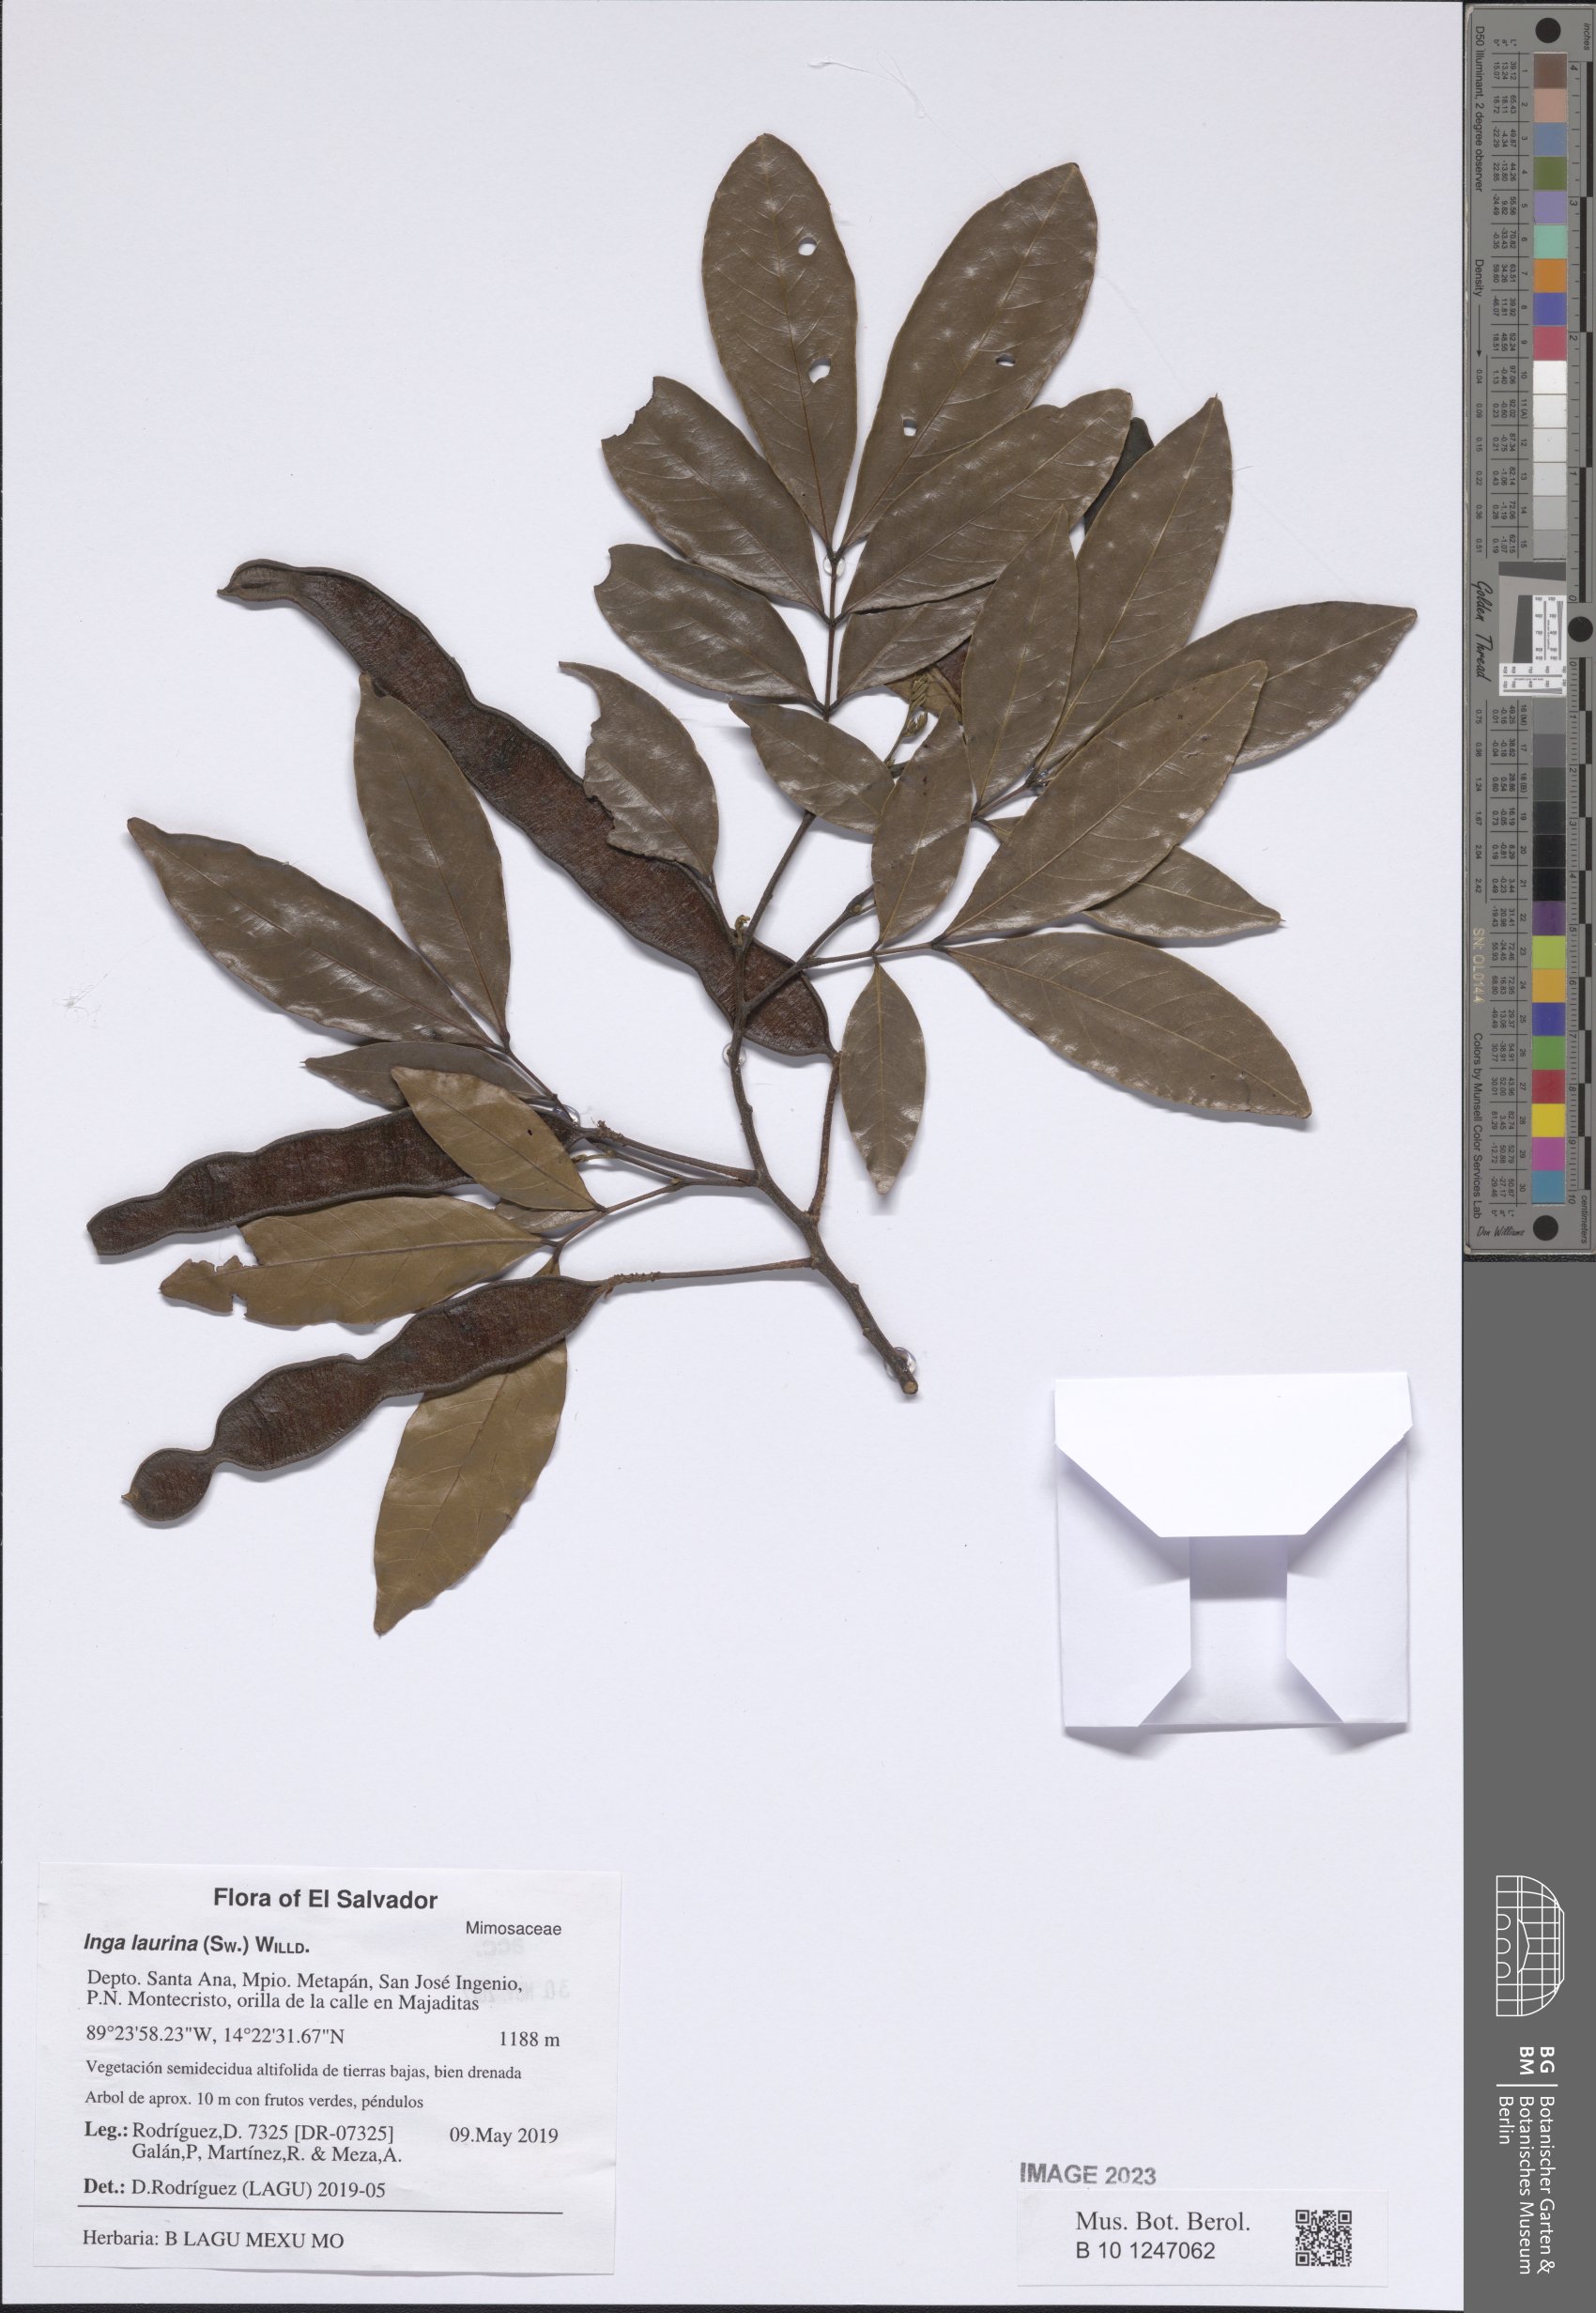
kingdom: Plantae
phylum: Tracheophyta
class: Magnoliopsida
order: Fabales
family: Fabaceae
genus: Inga
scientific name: Inga laurina
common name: Red wood
